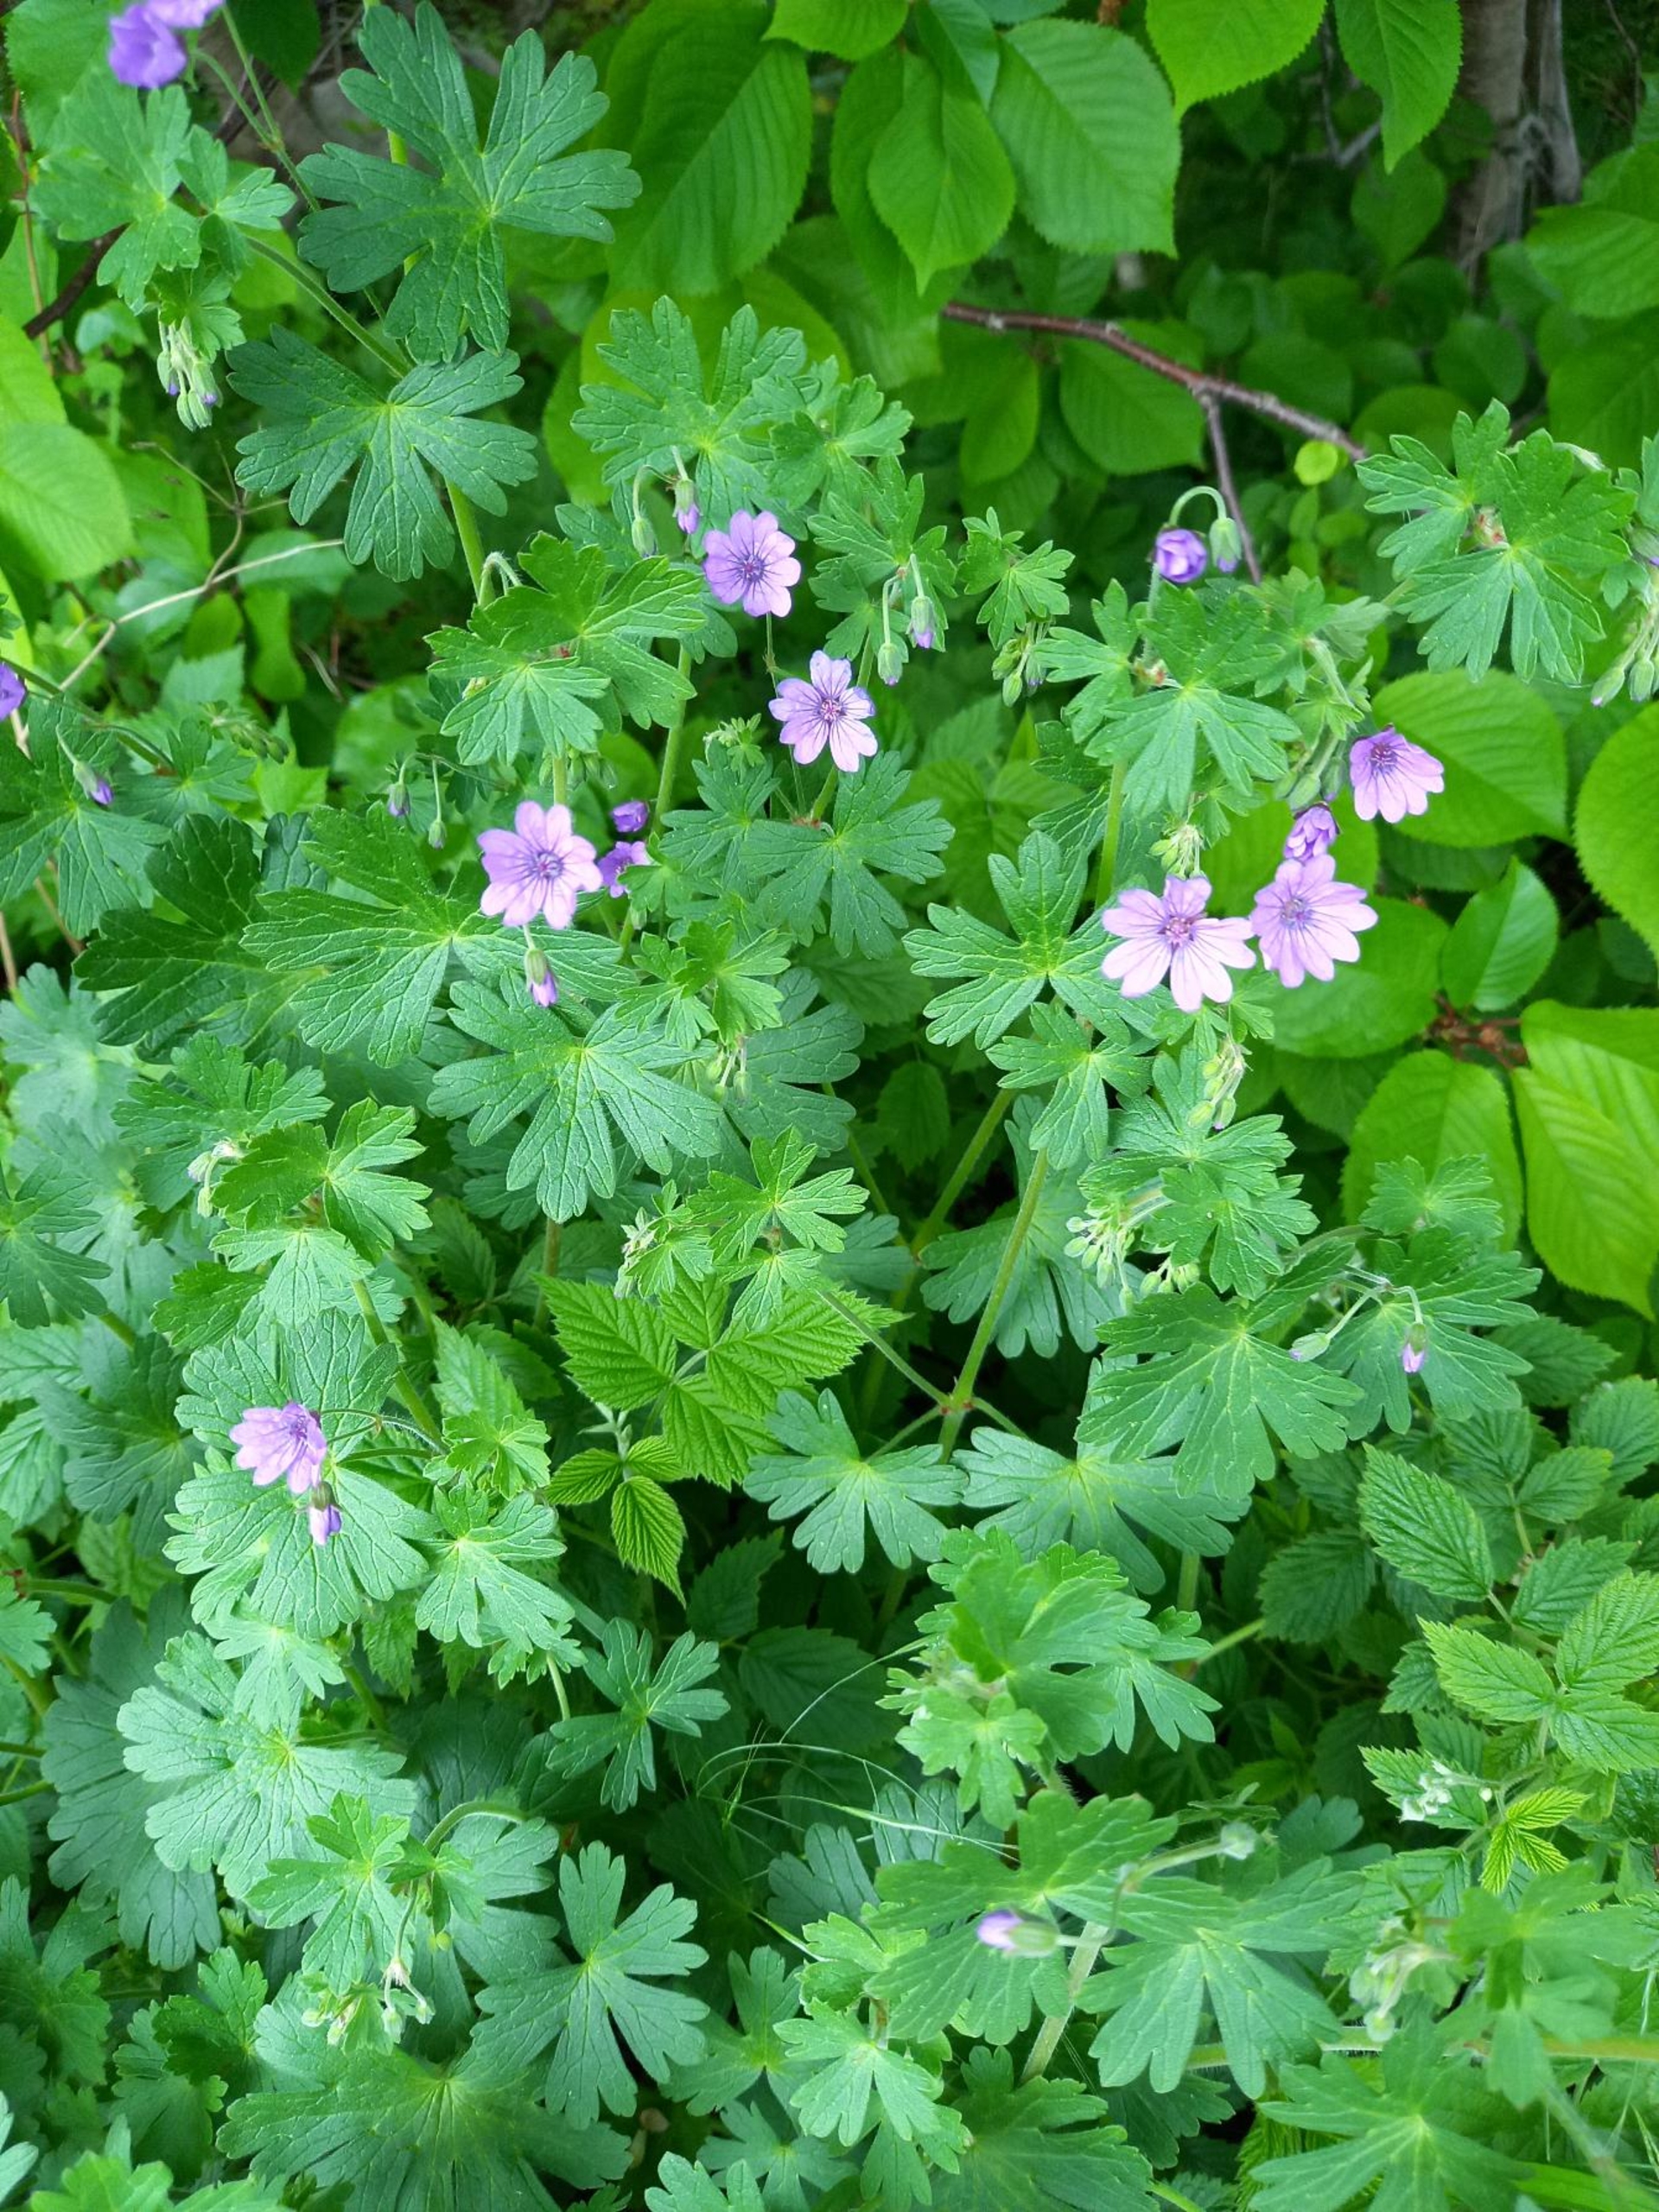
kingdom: Plantae
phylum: Tracheophyta
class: Magnoliopsida
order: Geraniales
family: Geraniaceae
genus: Geranium
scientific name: Geranium pyrenaicum
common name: Pyrenæisk storkenæb
